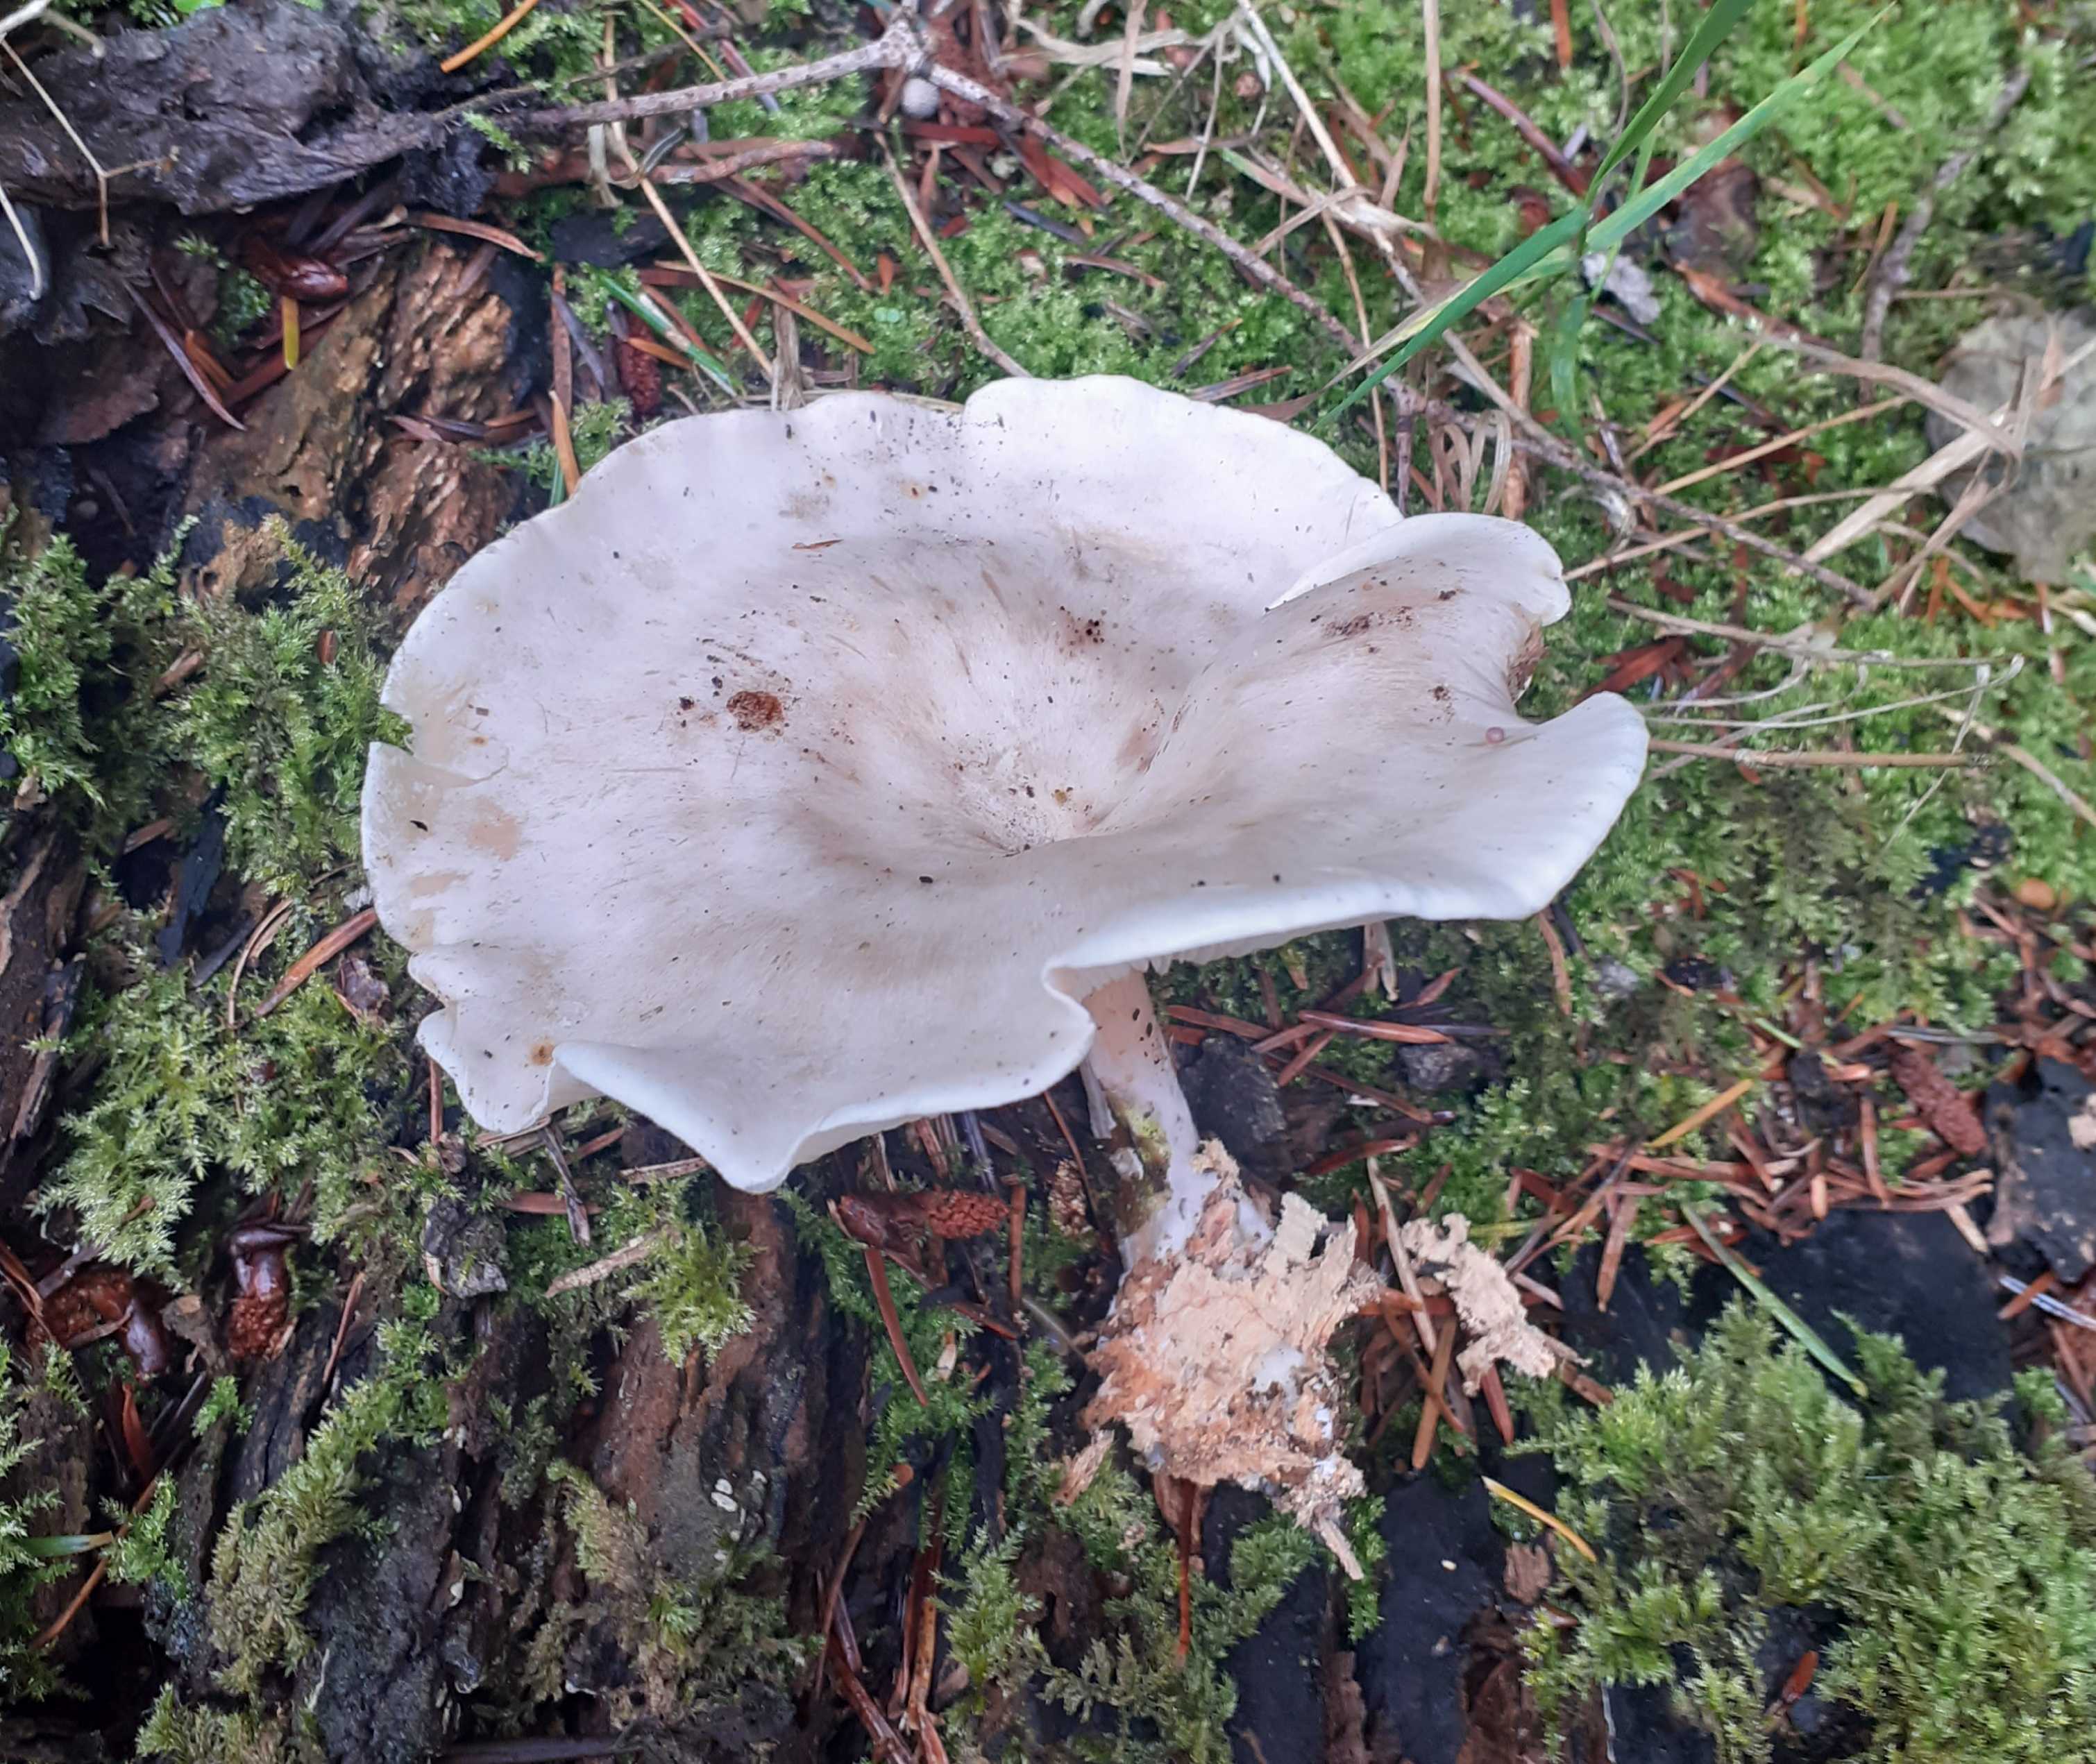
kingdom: Fungi
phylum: Basidiomycota
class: Agaricomycetes
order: Agaricales
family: Tricholomataceae
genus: Clitocybe
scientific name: Clitocybe phyllophila
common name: løv-tragthat
